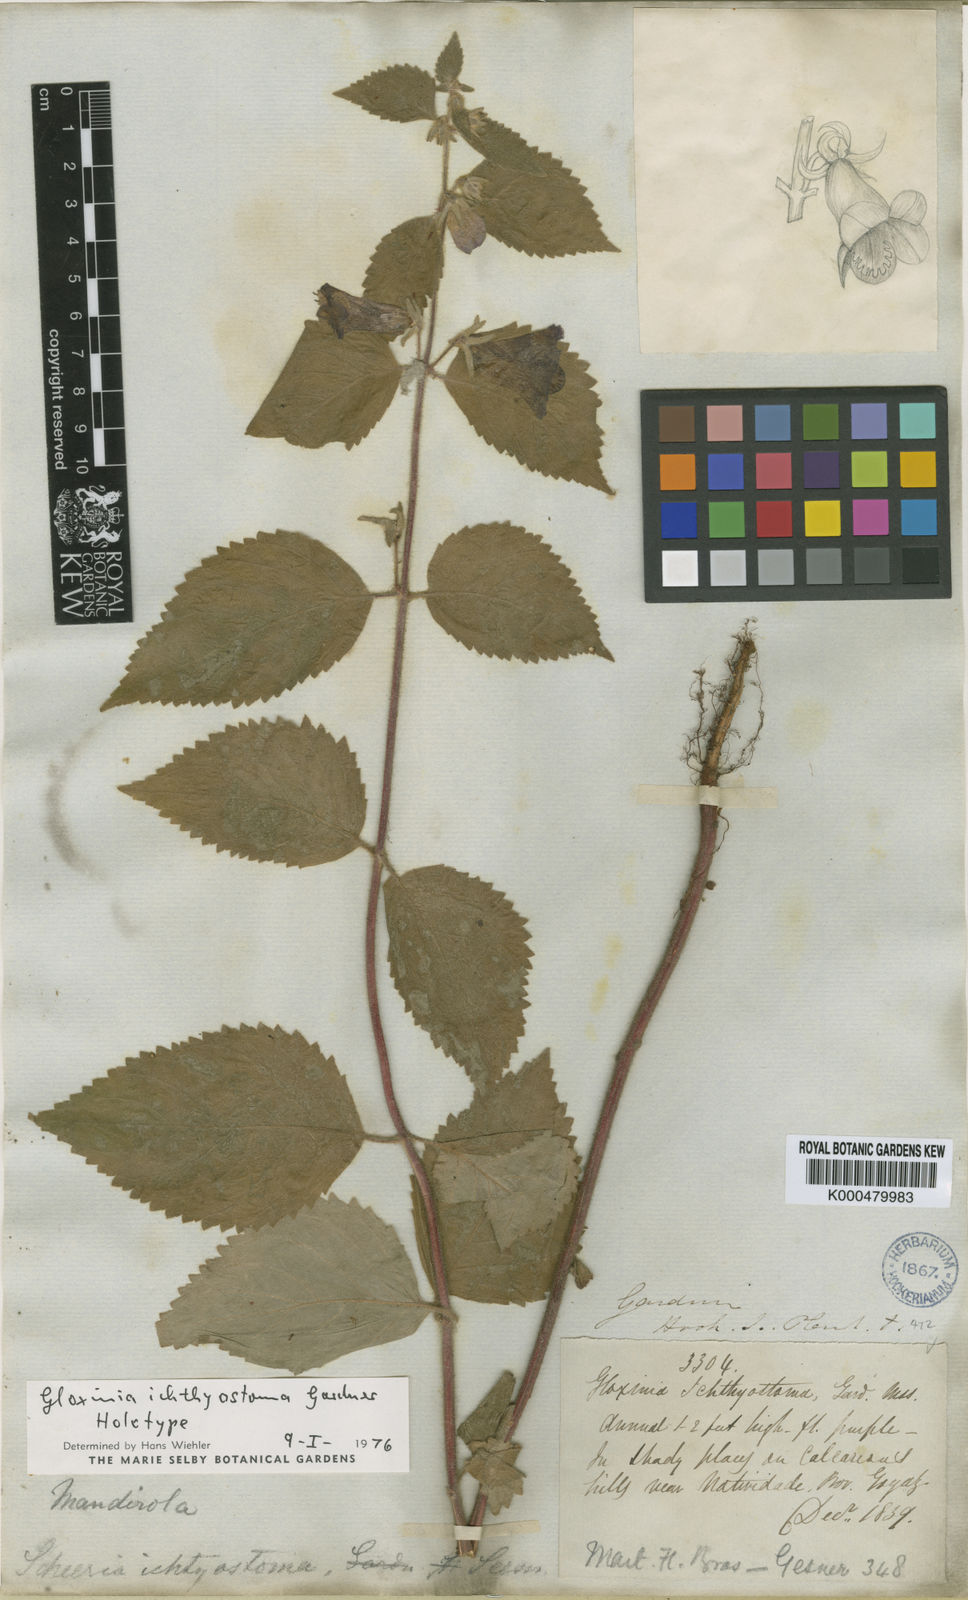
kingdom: Plantae
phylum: Tracheophyta
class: Magnoliopsida
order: Lamiales
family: Gesneriaceae
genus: Mandirola
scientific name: Mandirola ichthyostoma
